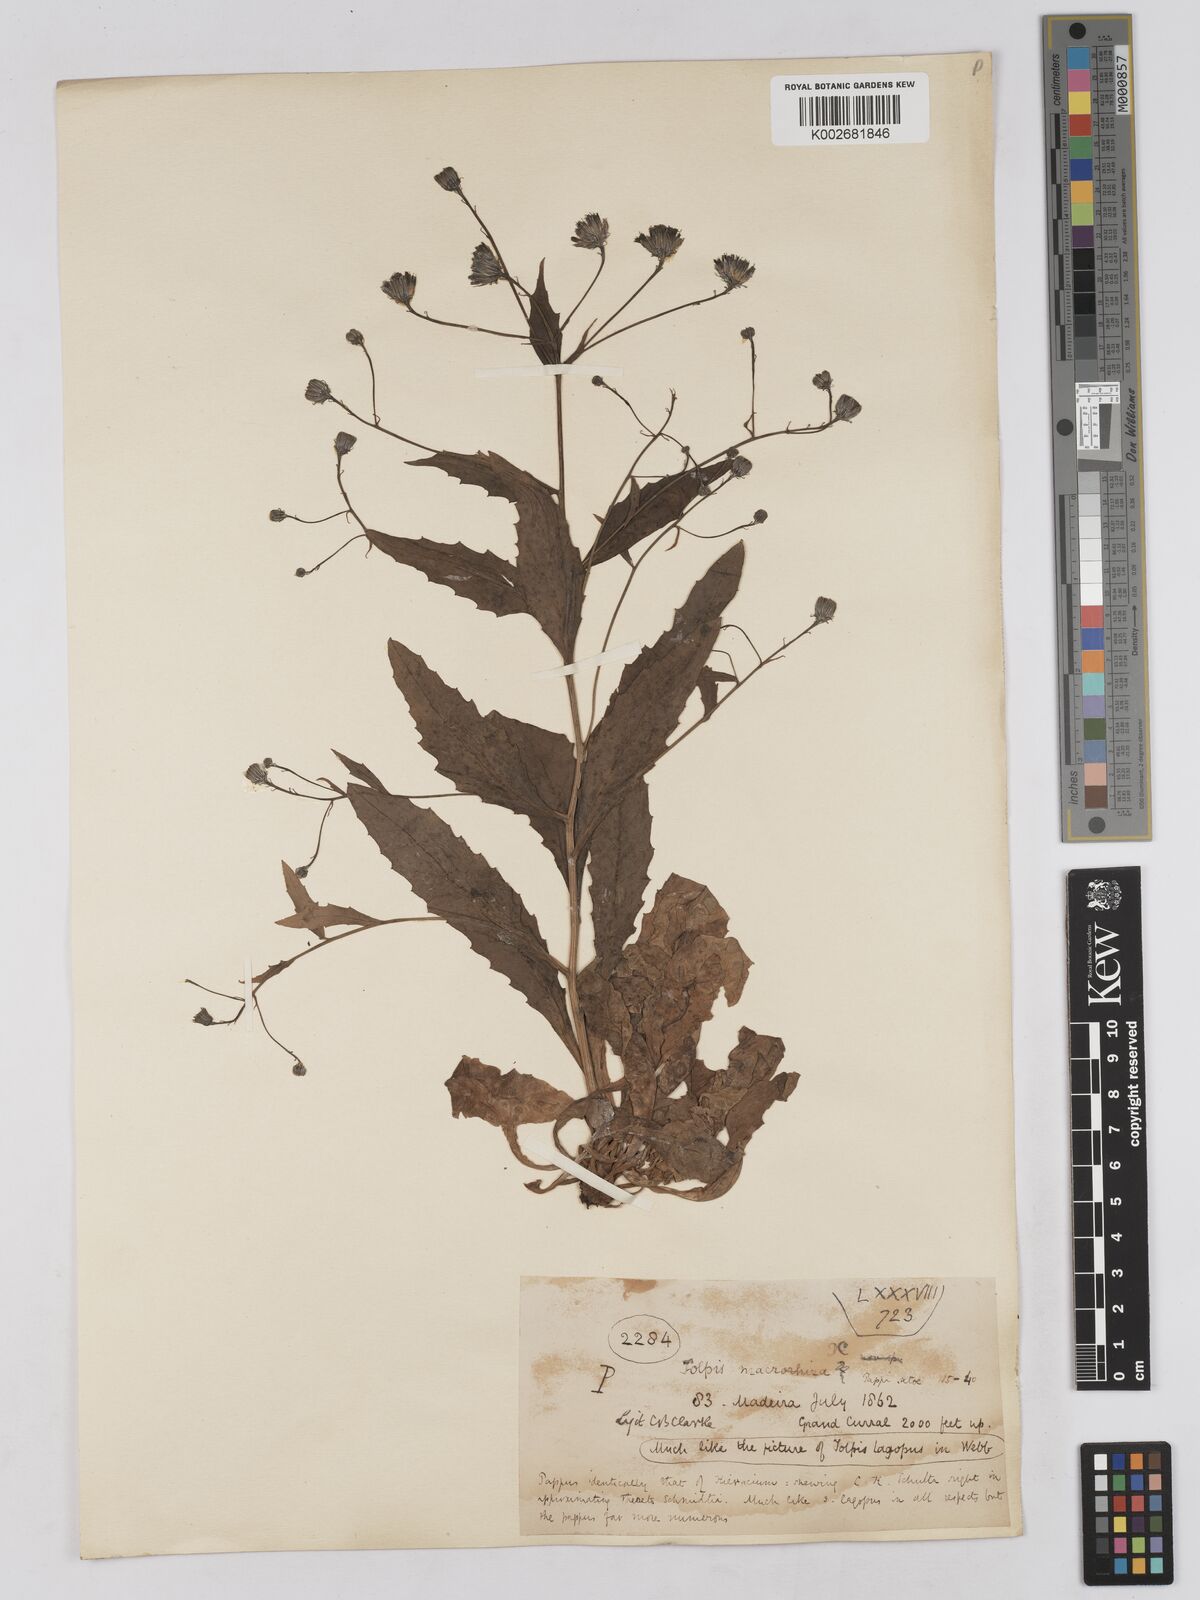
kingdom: Plantae
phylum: Tracheophyta
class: Magnoliopsida
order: Asterales
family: Asteraceae
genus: Tolpis
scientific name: Tolpis macrorhiza
